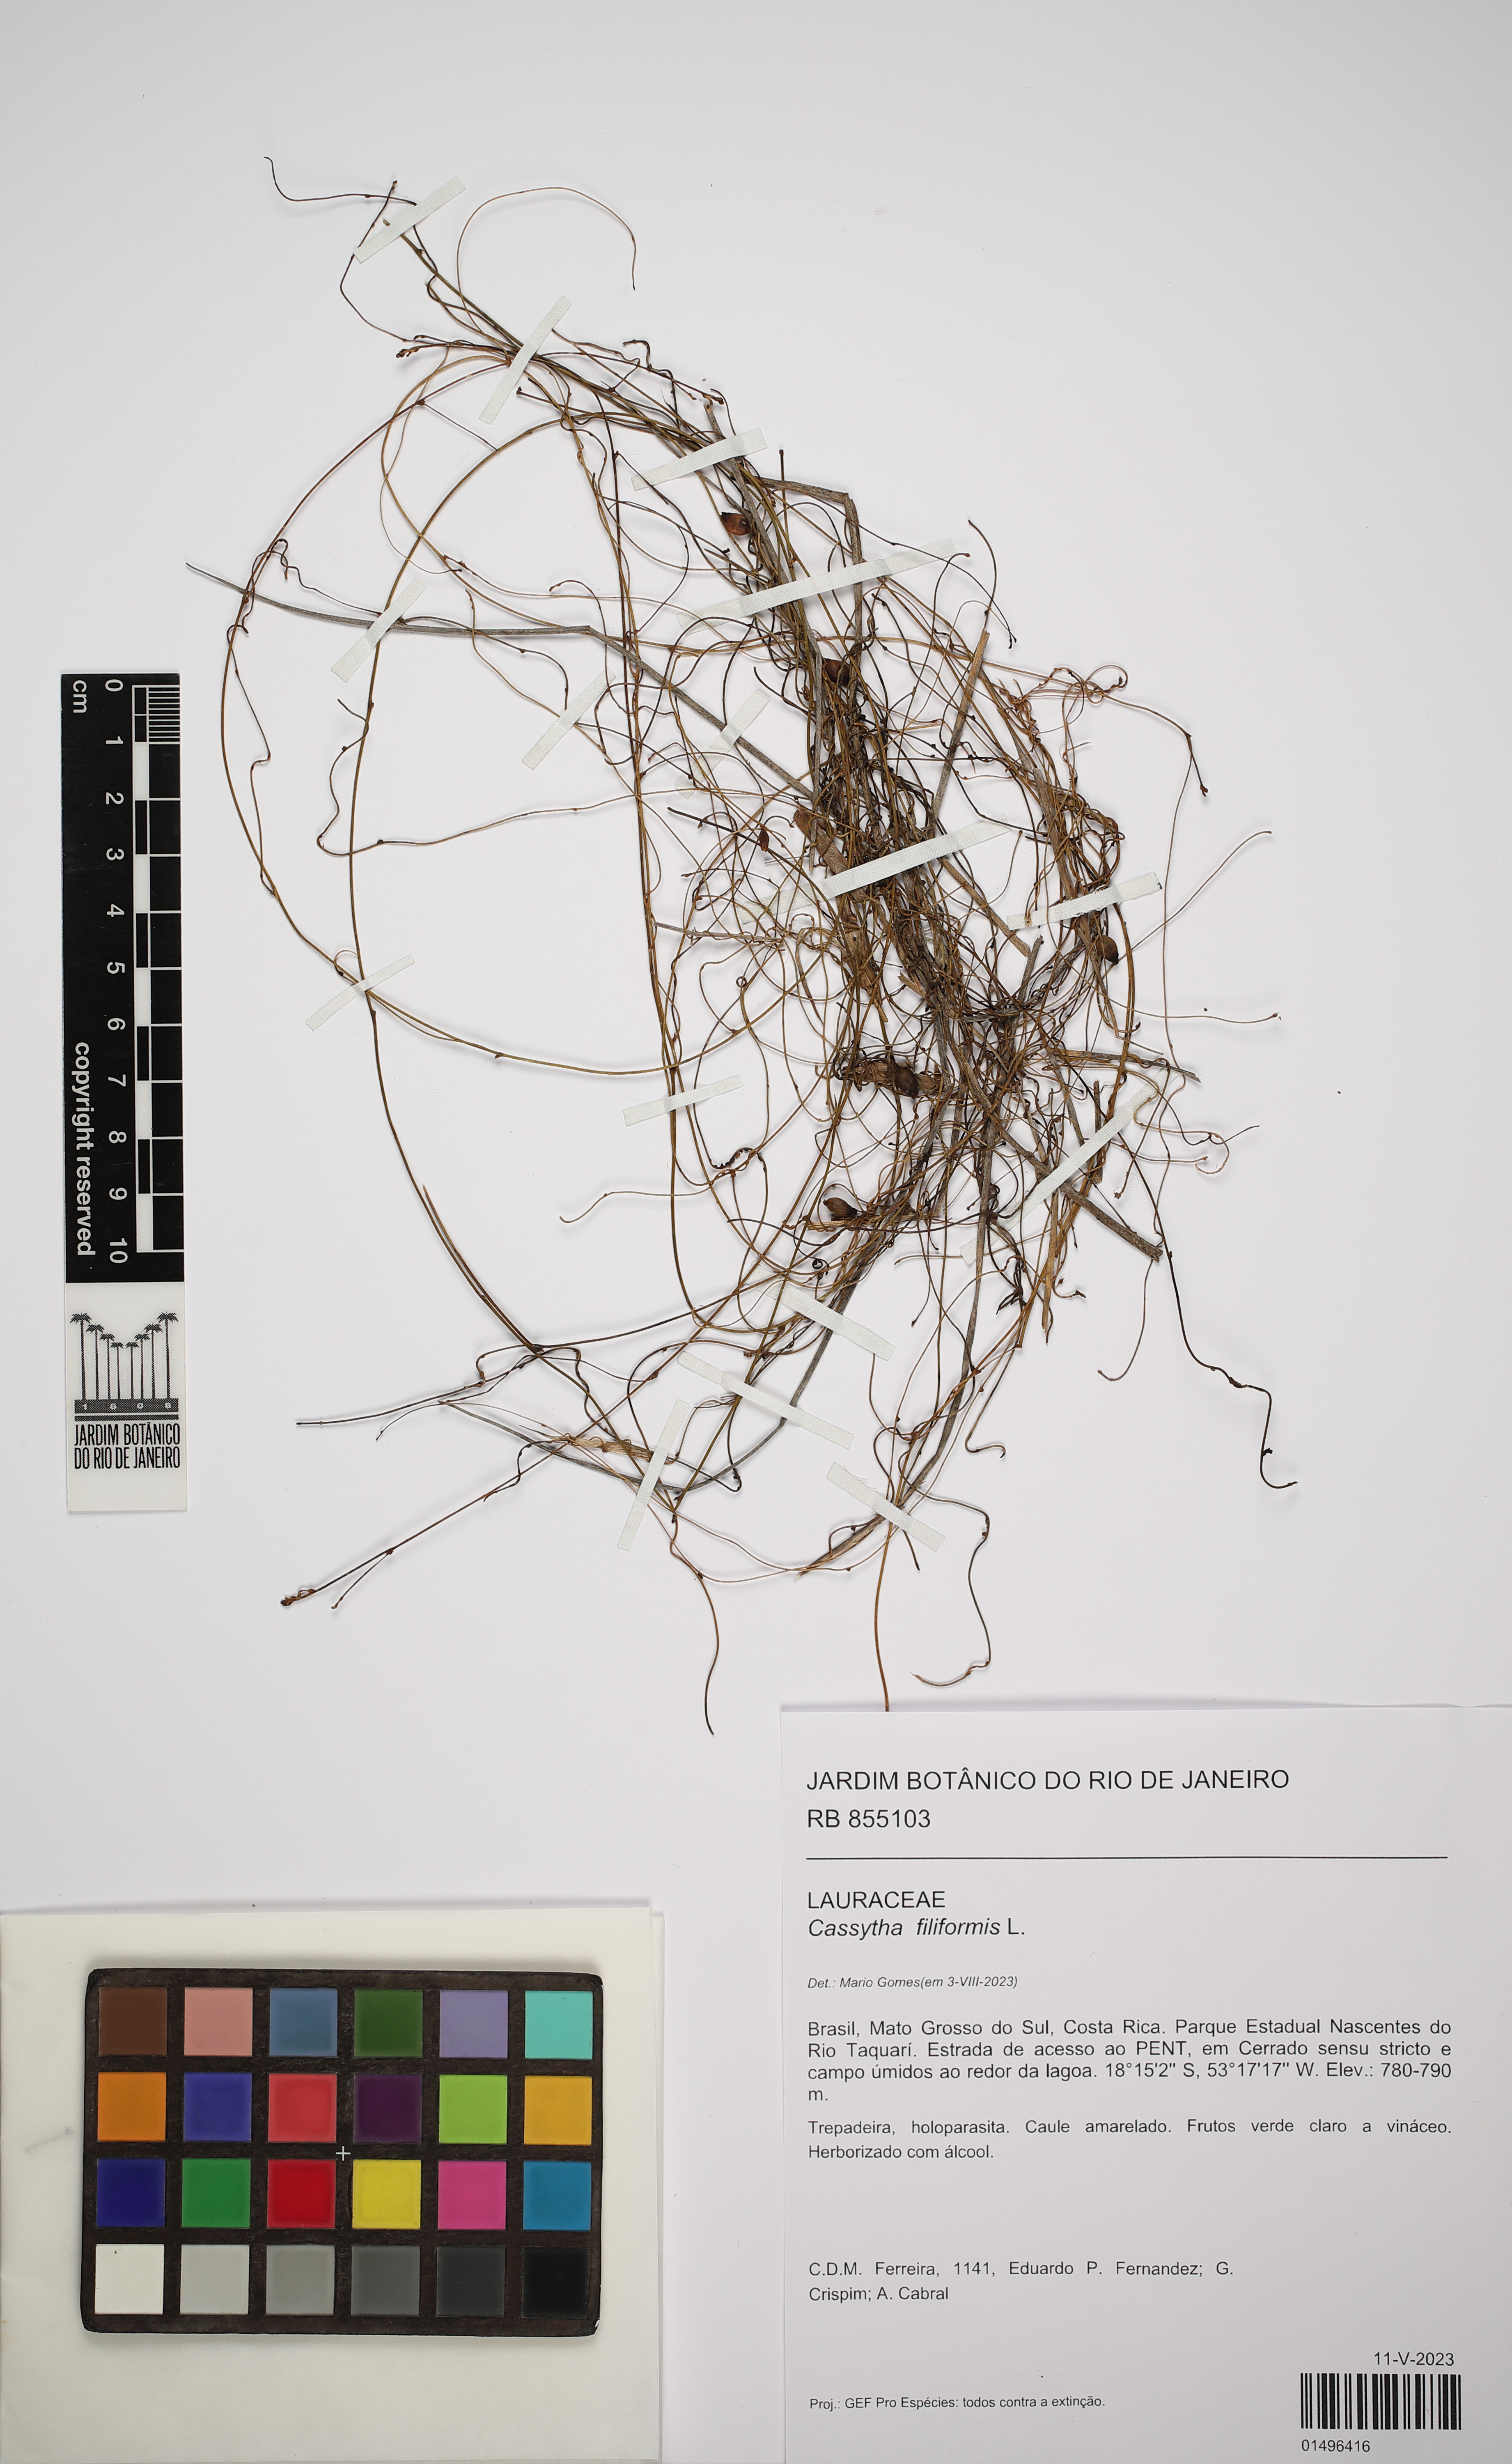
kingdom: Plantae
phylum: Tracheophyta
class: Magnoliopsida
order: Laurales
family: Lauraceae
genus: Cassytha
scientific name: Cassytha filiformis
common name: Dodder-laurel
